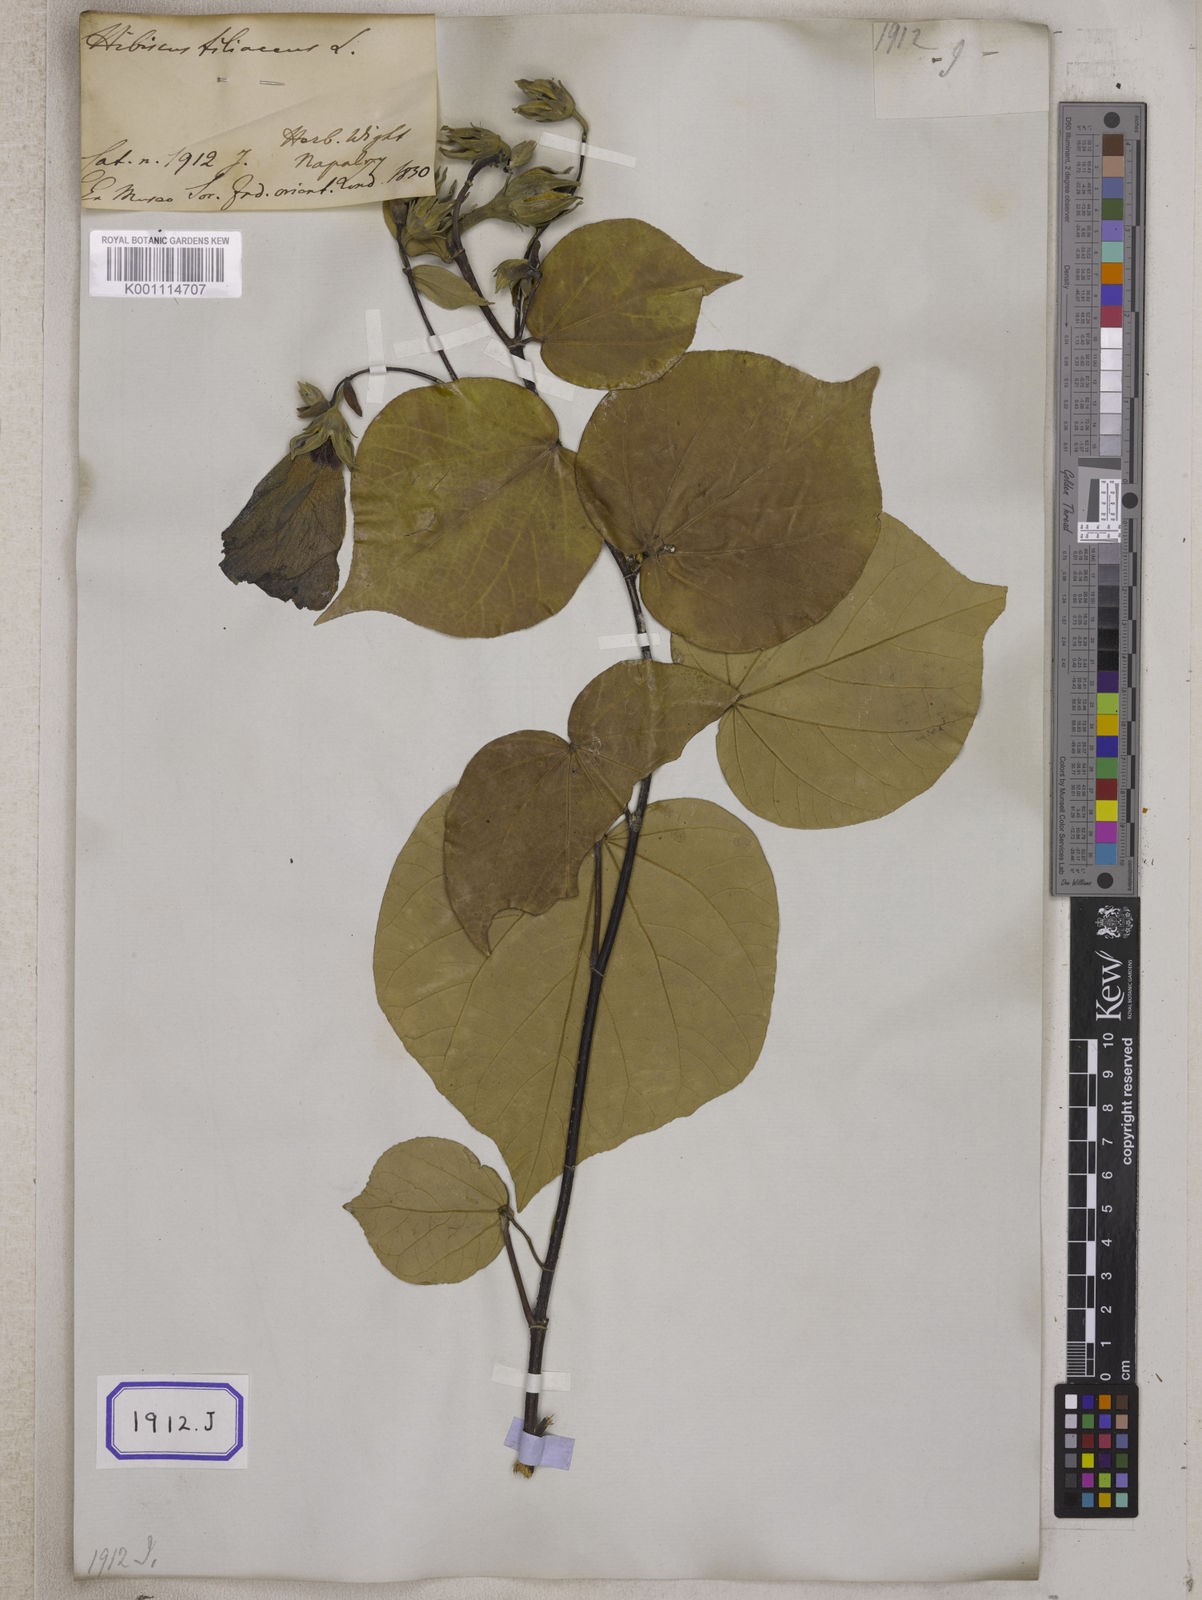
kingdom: Plantae
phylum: Tracheophyta
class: Magnoliopsida
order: Malvales
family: Malvaceae
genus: Talipariti
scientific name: Talipariti tiliaceum
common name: Sea hibiscus
